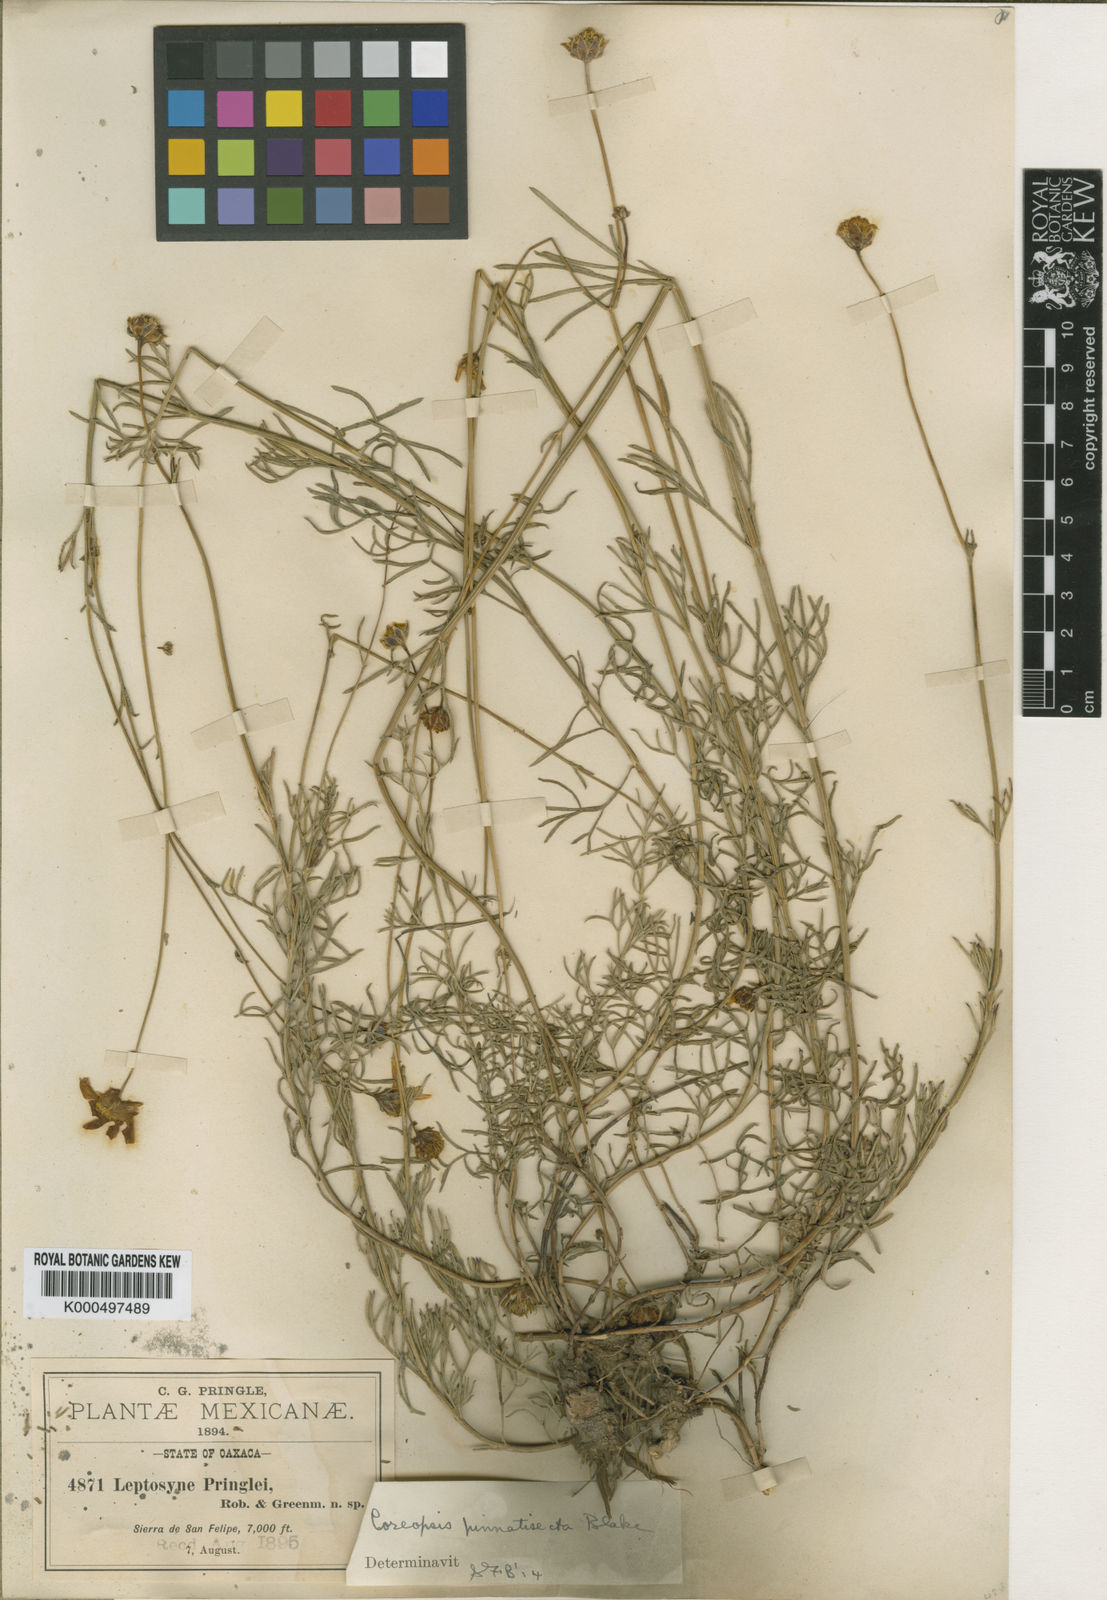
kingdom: Plantae
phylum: Tracheophyta
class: Magnoliopsida
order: Asterales
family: Asteraceae
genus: Heterosperma
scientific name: Heterosperma mexicanum
